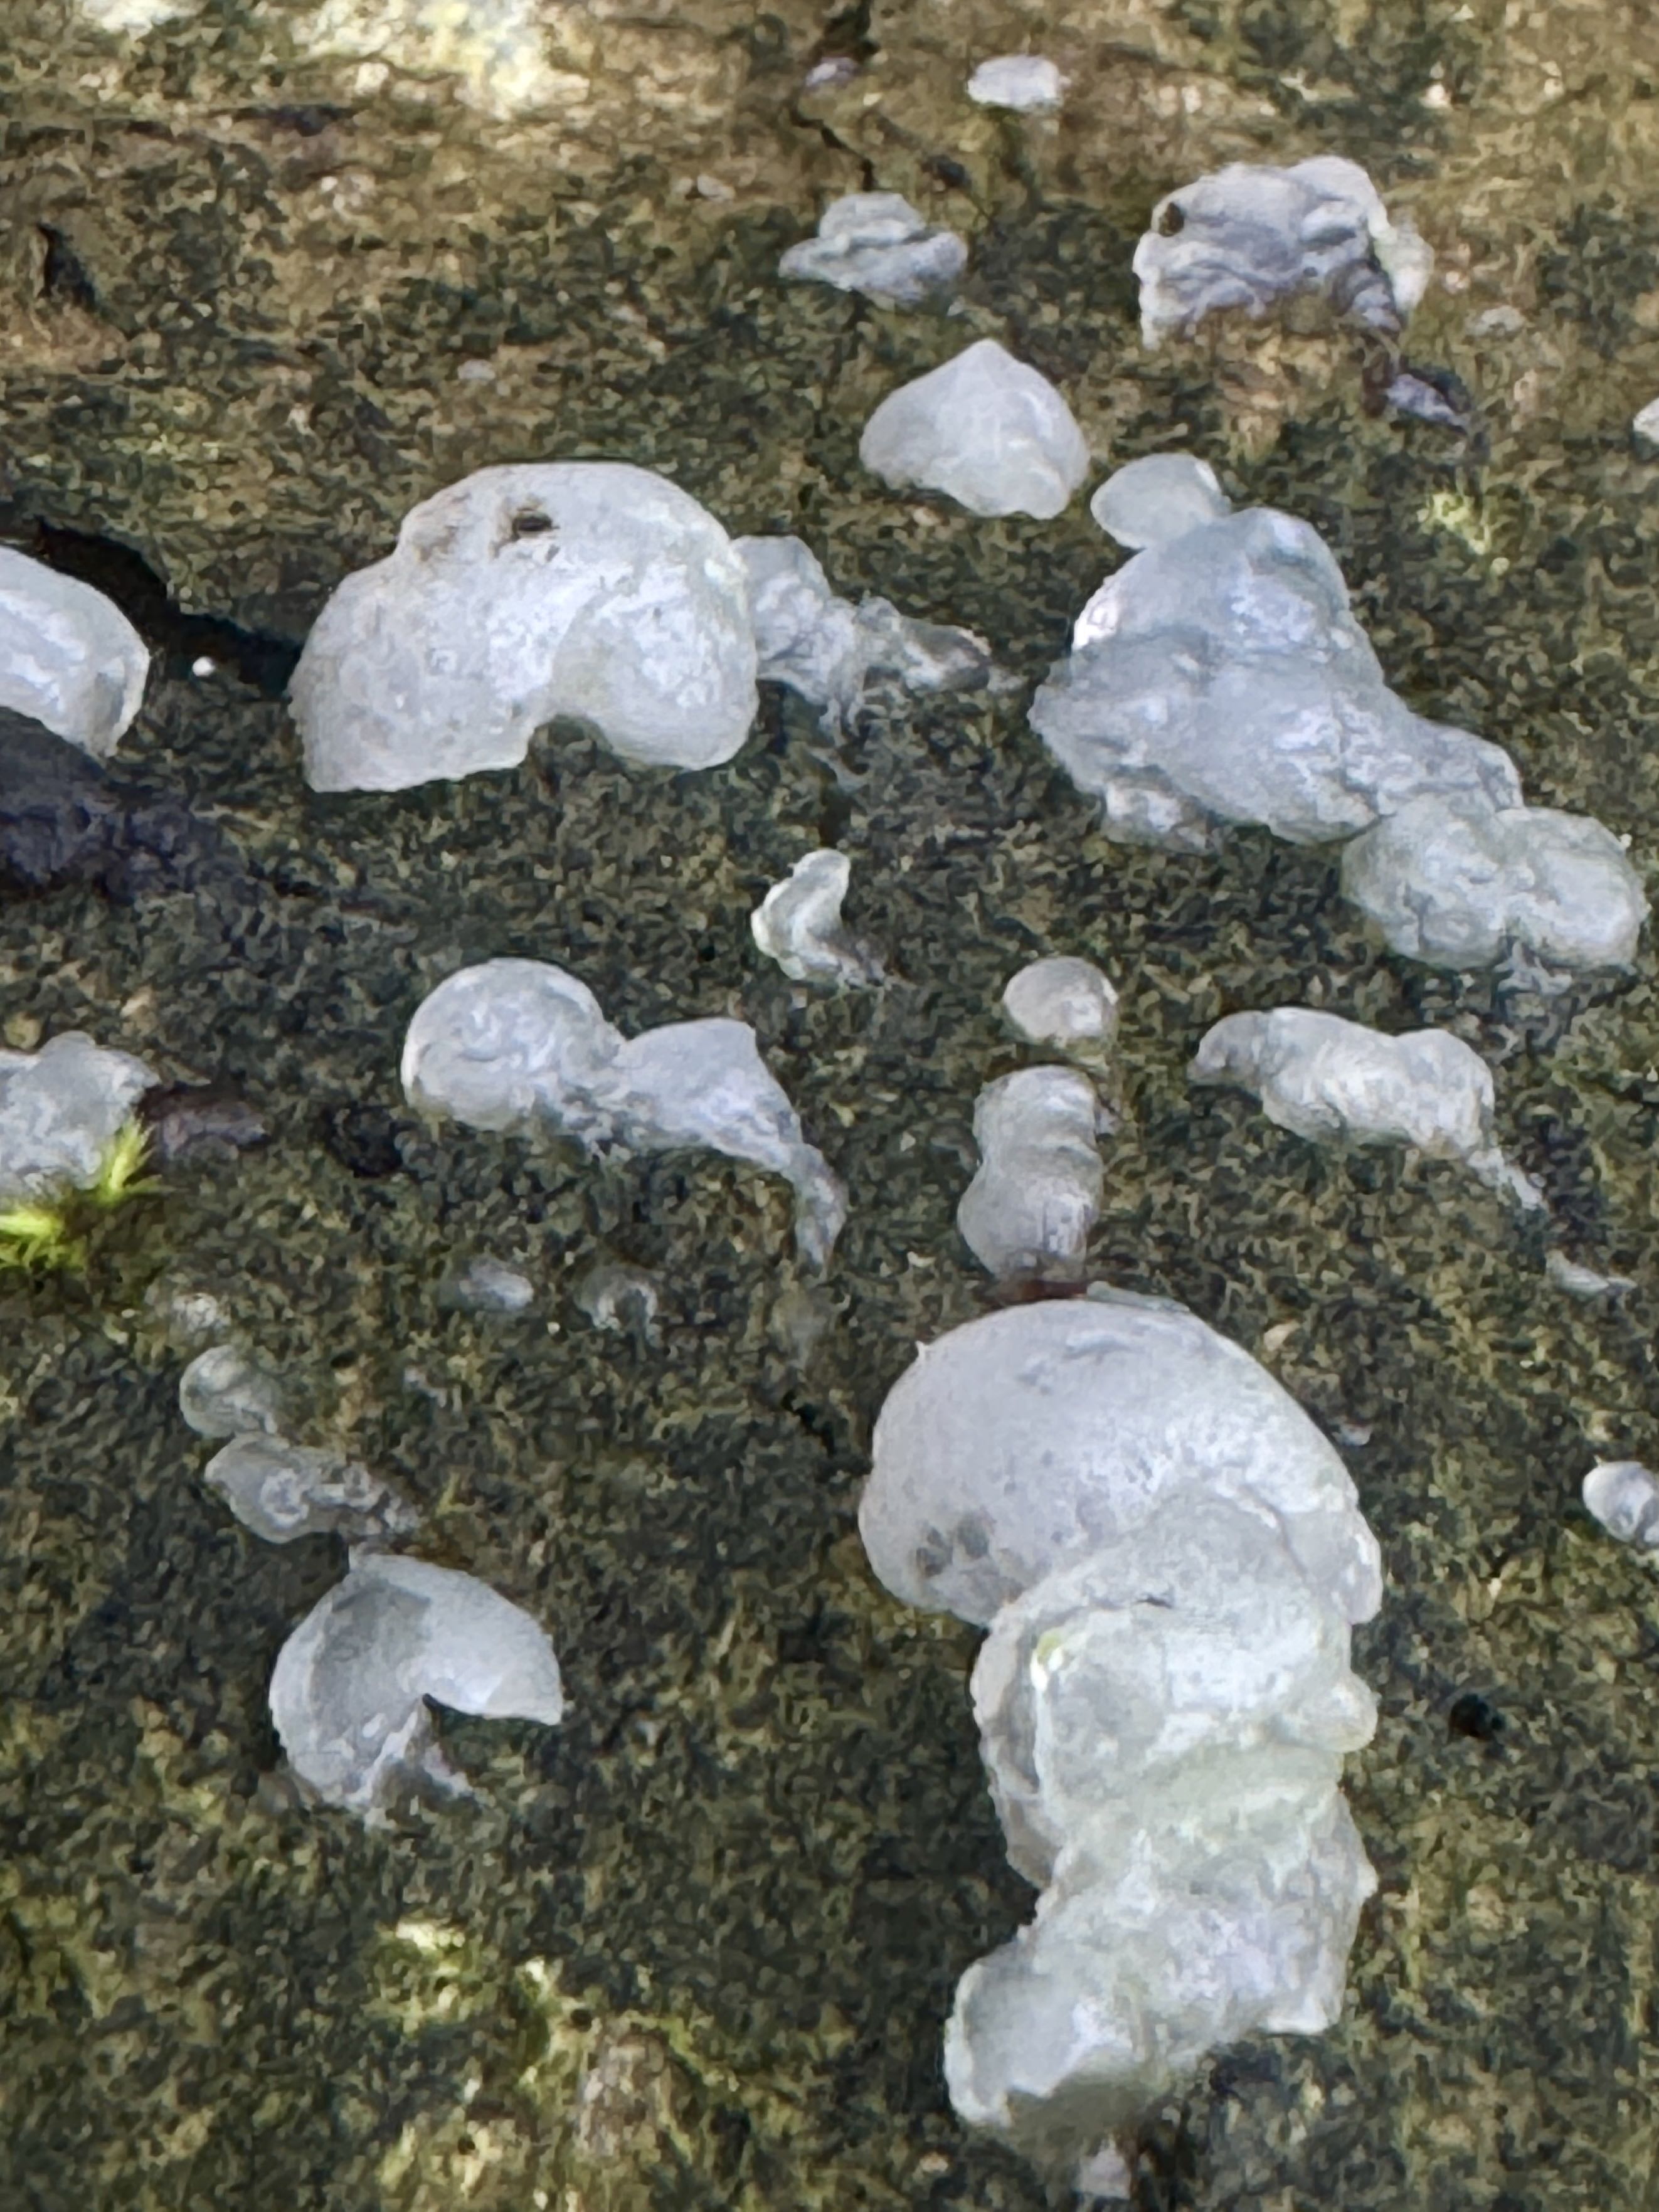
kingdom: Fungi
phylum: Basidiomycota
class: Agaricomycetes
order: Auriculariales
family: Hyaloriaceae
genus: Myxarium
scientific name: Myxarium nucleatum
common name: klar bævretop
